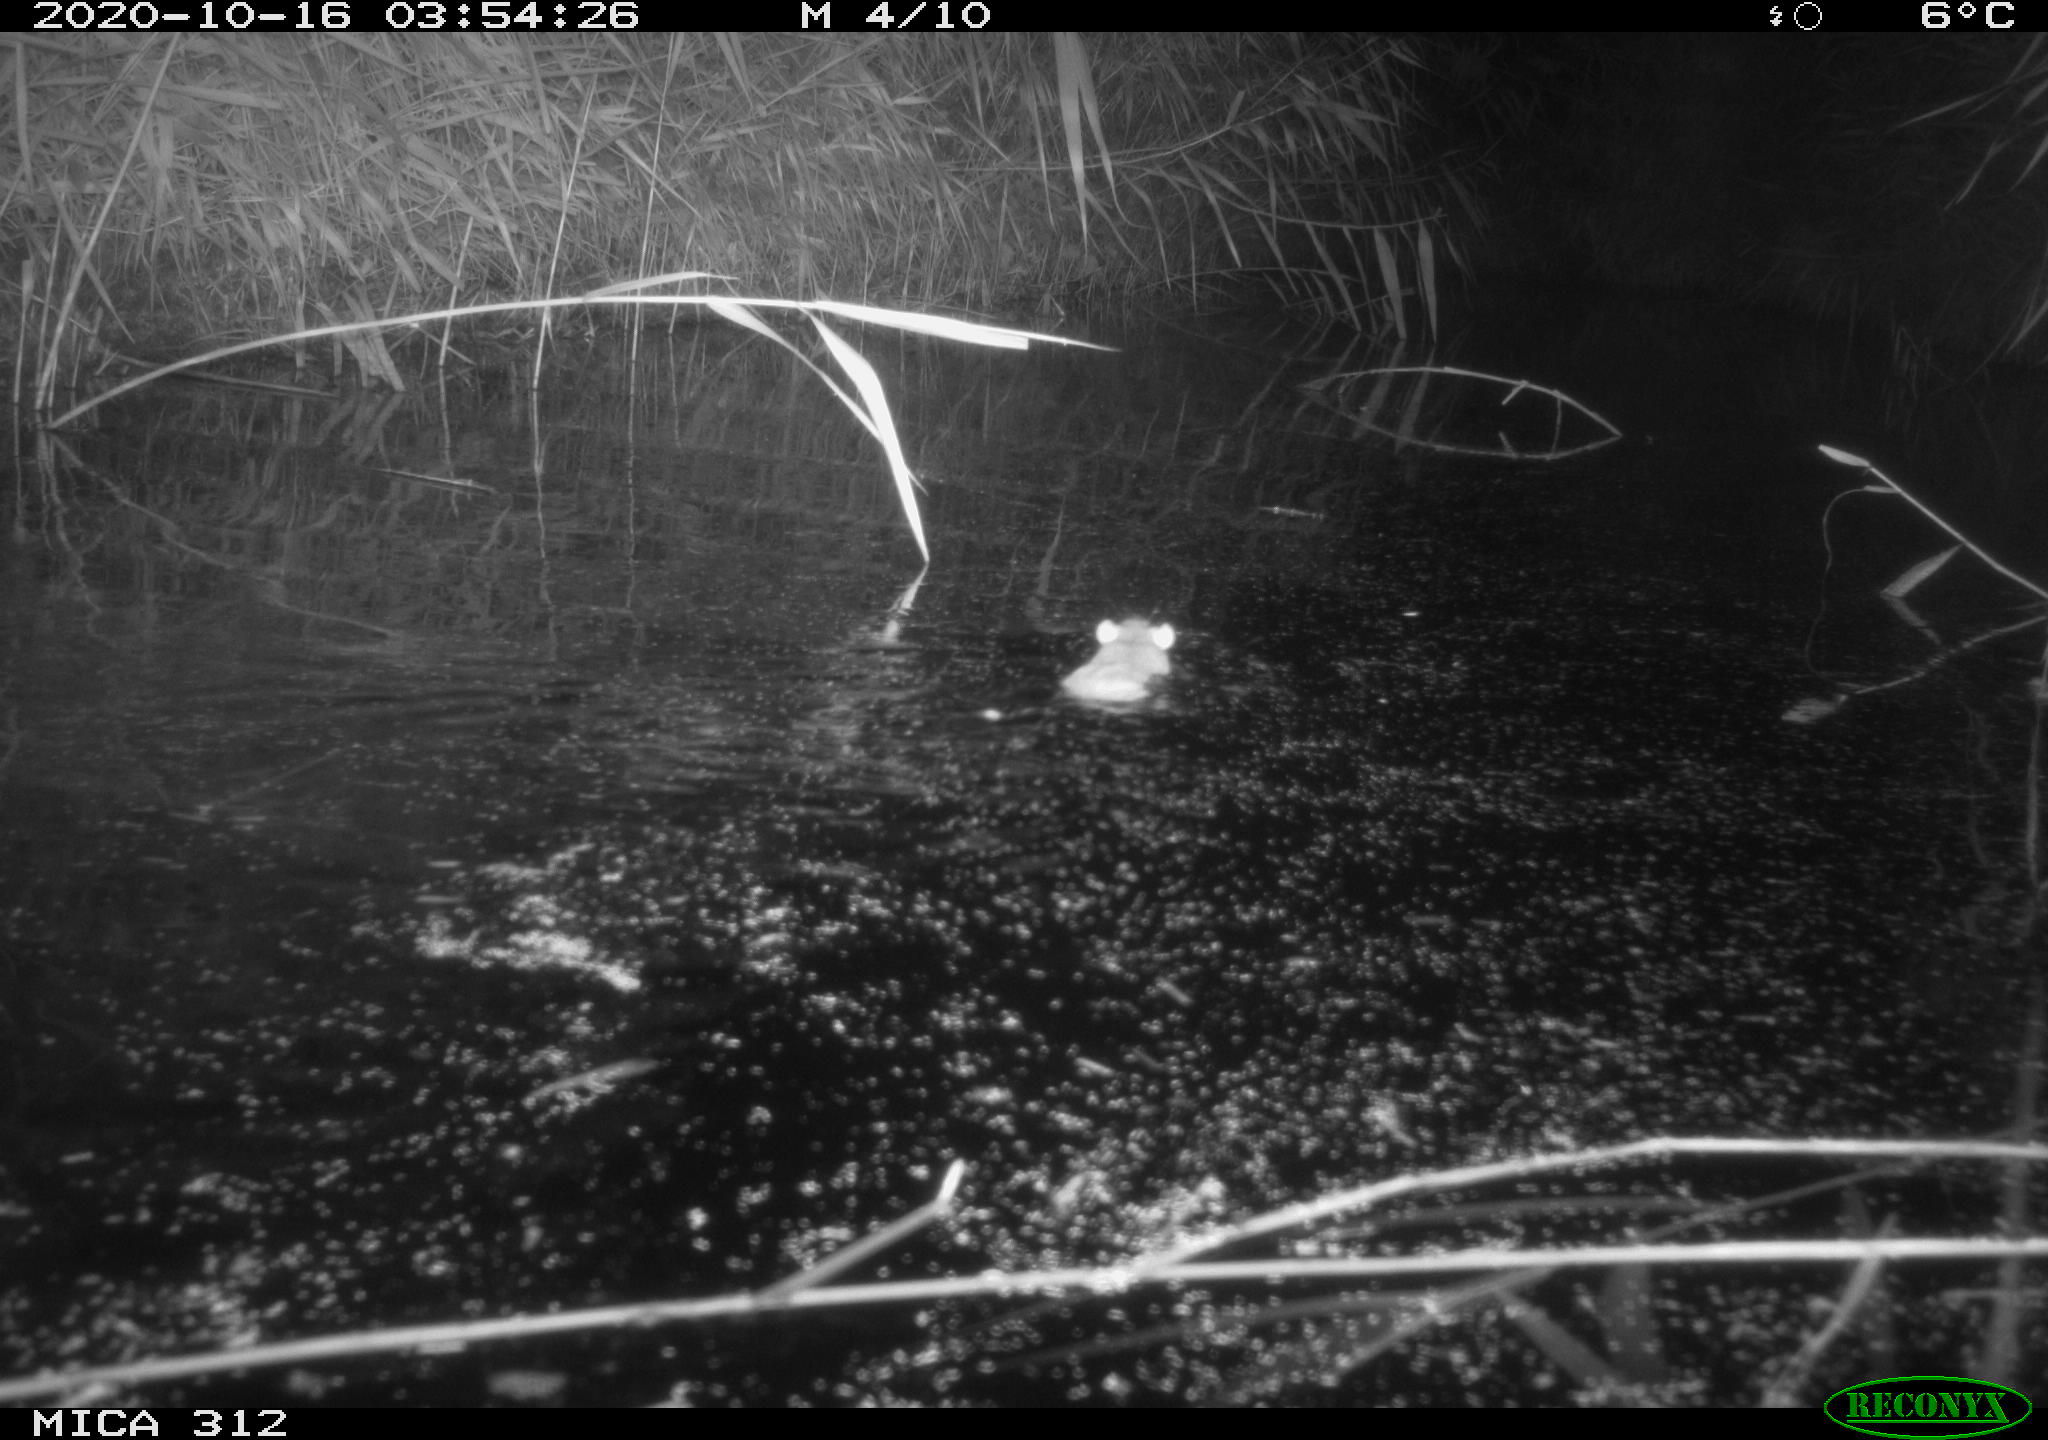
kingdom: Animalia
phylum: Chordata
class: Mammalia
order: Rodentia
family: Muridae
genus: Rattus
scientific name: Rattus norvegicus
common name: Brown rat
